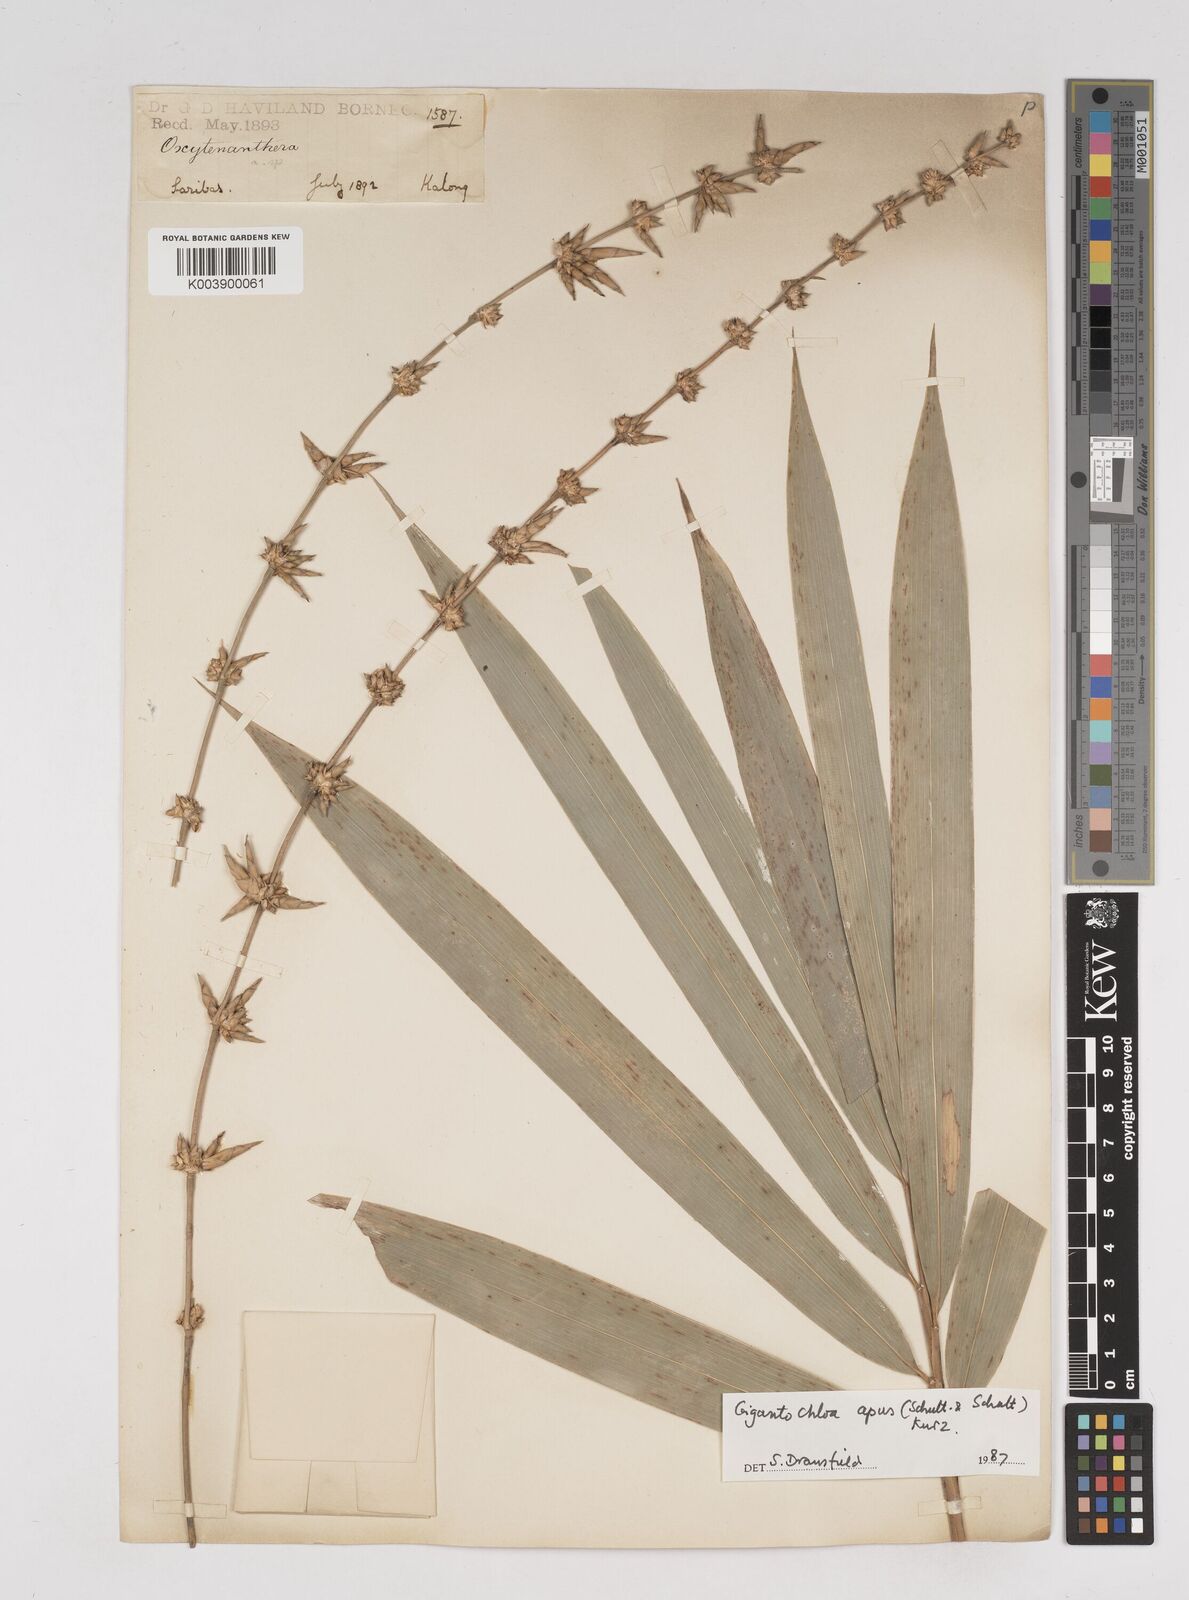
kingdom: Plantae
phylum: Tracheophyta
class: Liliopsida
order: Poales
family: Poaceae
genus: Gigantochloa
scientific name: Gigantochloa apus
